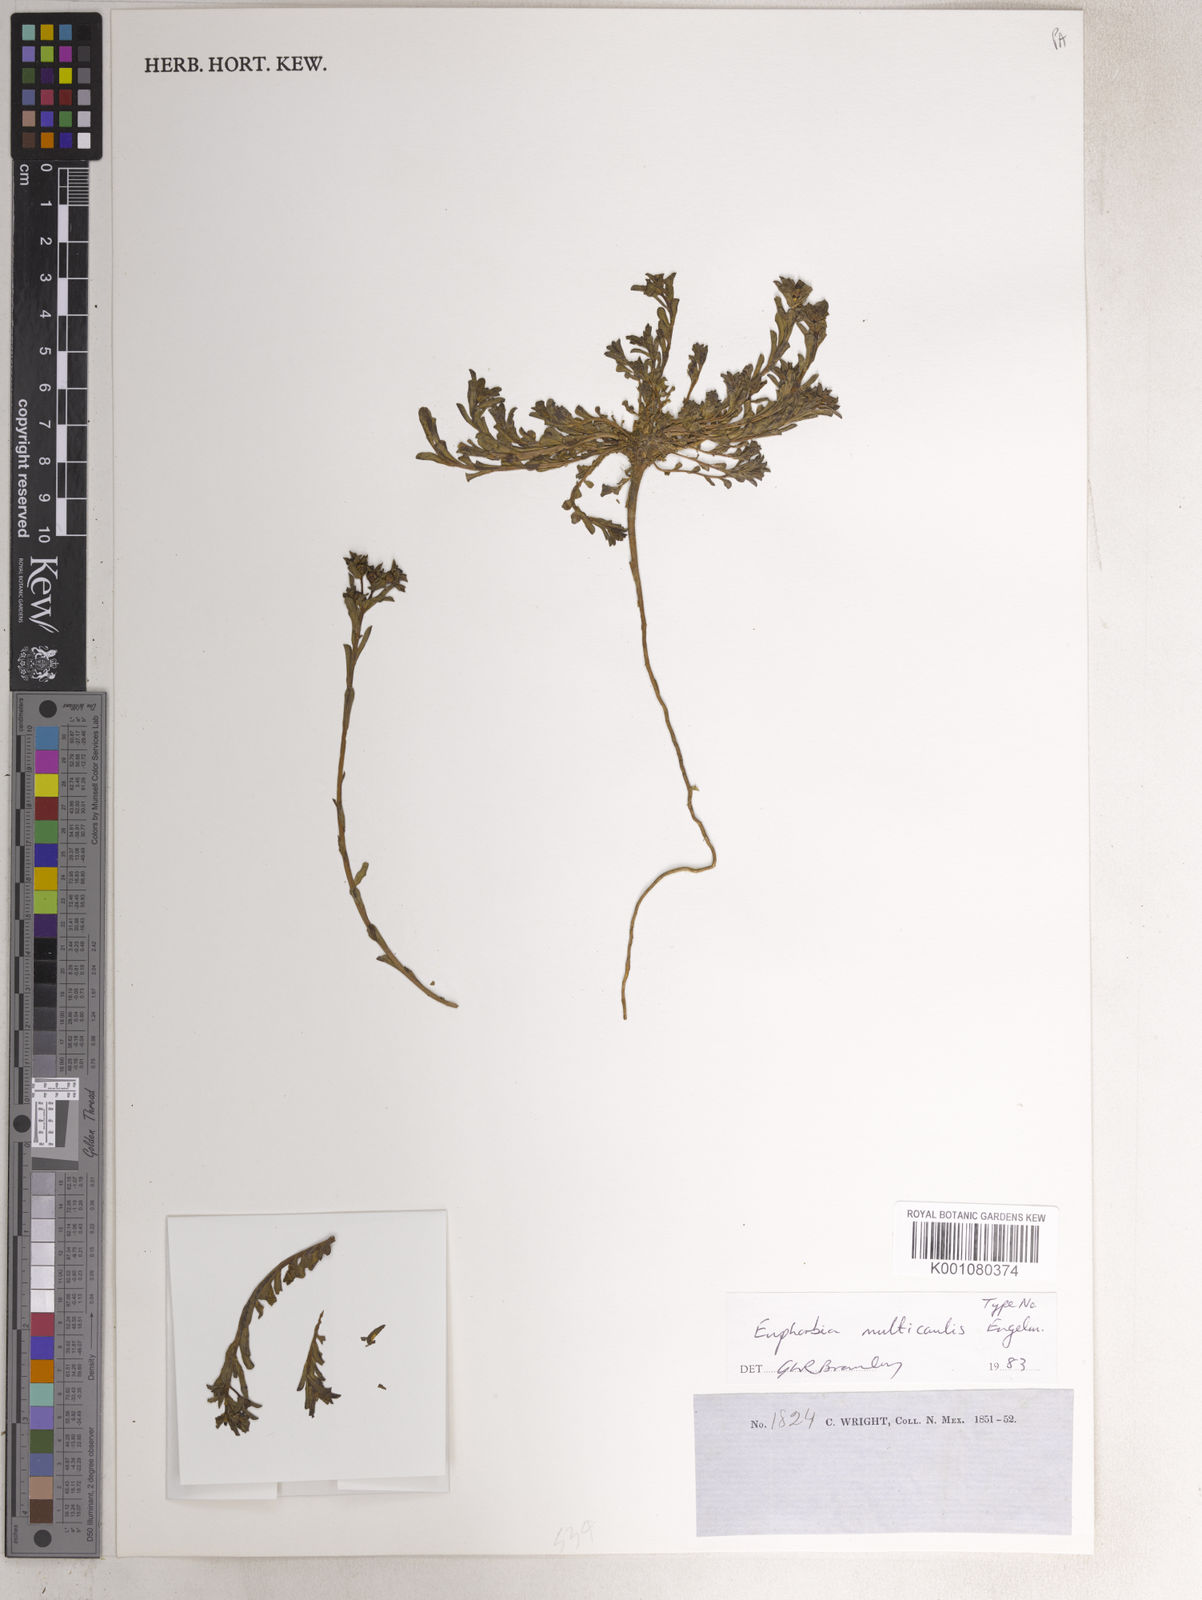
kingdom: Plantae
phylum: Tracheophyta
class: Magnoliopsida
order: Malpighiales
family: Euphorbiaceae
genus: Euphorbia
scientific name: Euphorbia spathulata
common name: Blunt spurge
